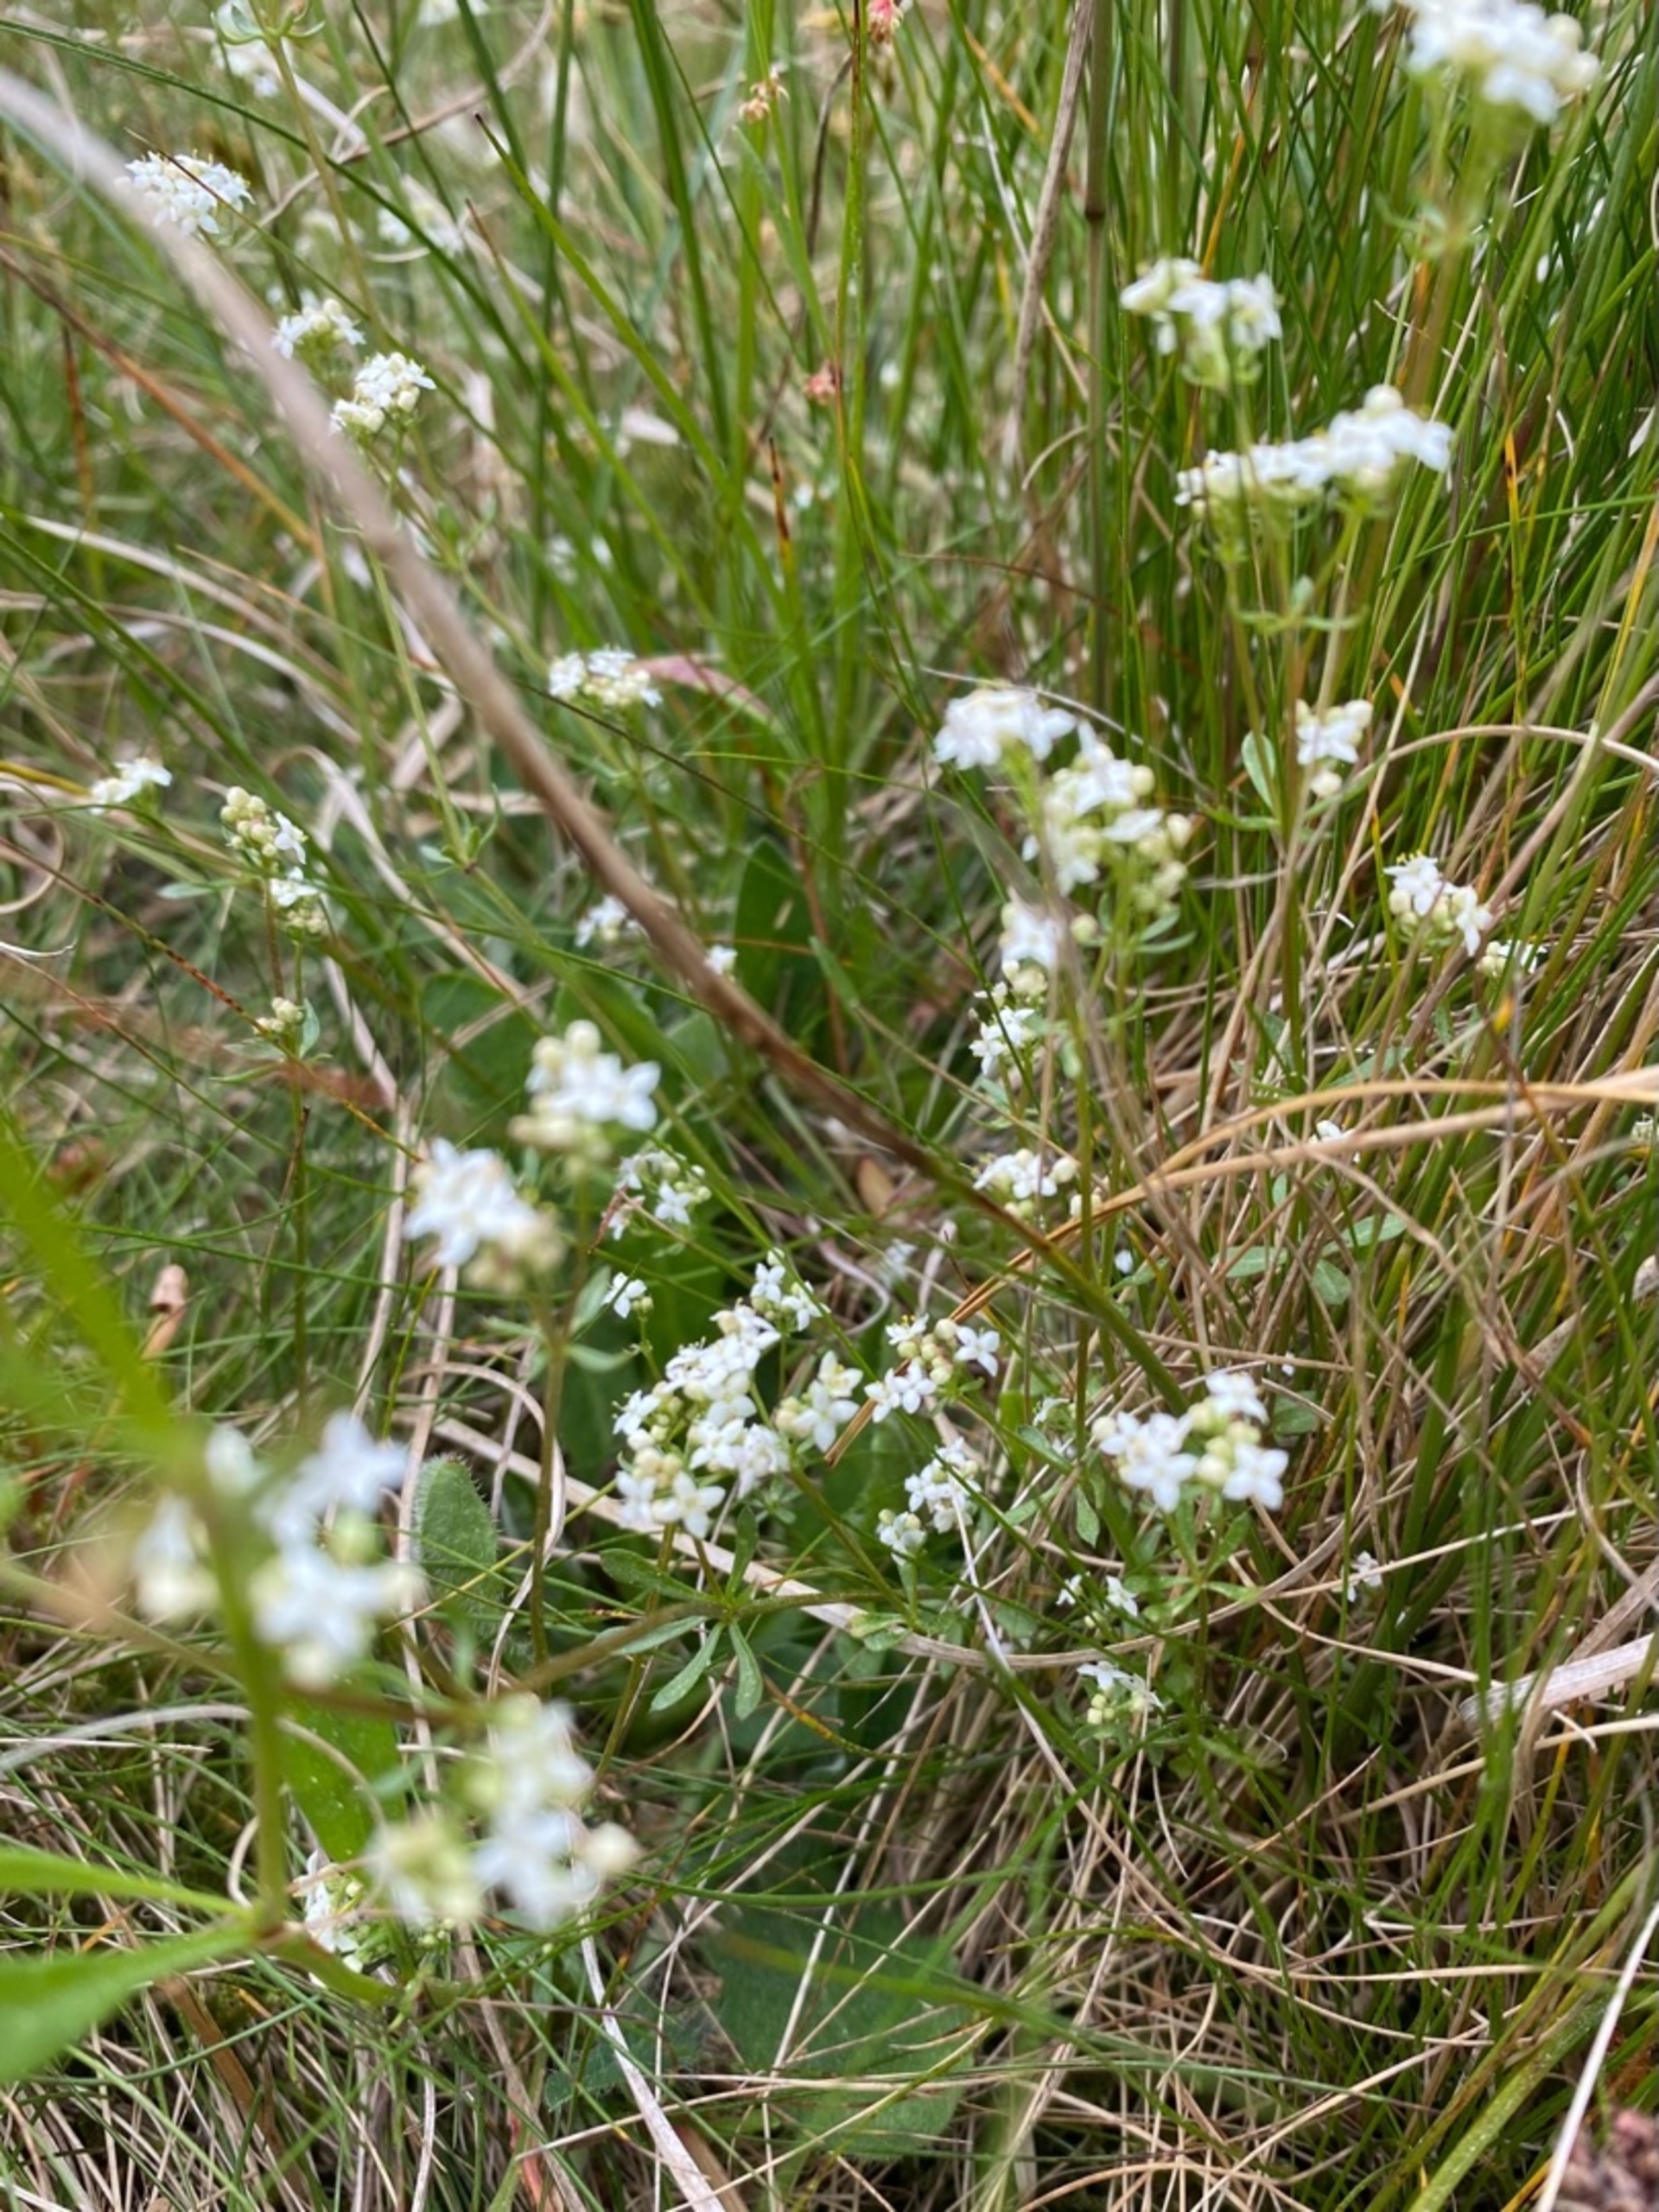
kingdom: Plantae
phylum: Tracheophyta
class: Magnoliopsida
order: Gentianales
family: Rubiaceae
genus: Galium
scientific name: Galium saxatile
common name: Lyng-snerre
